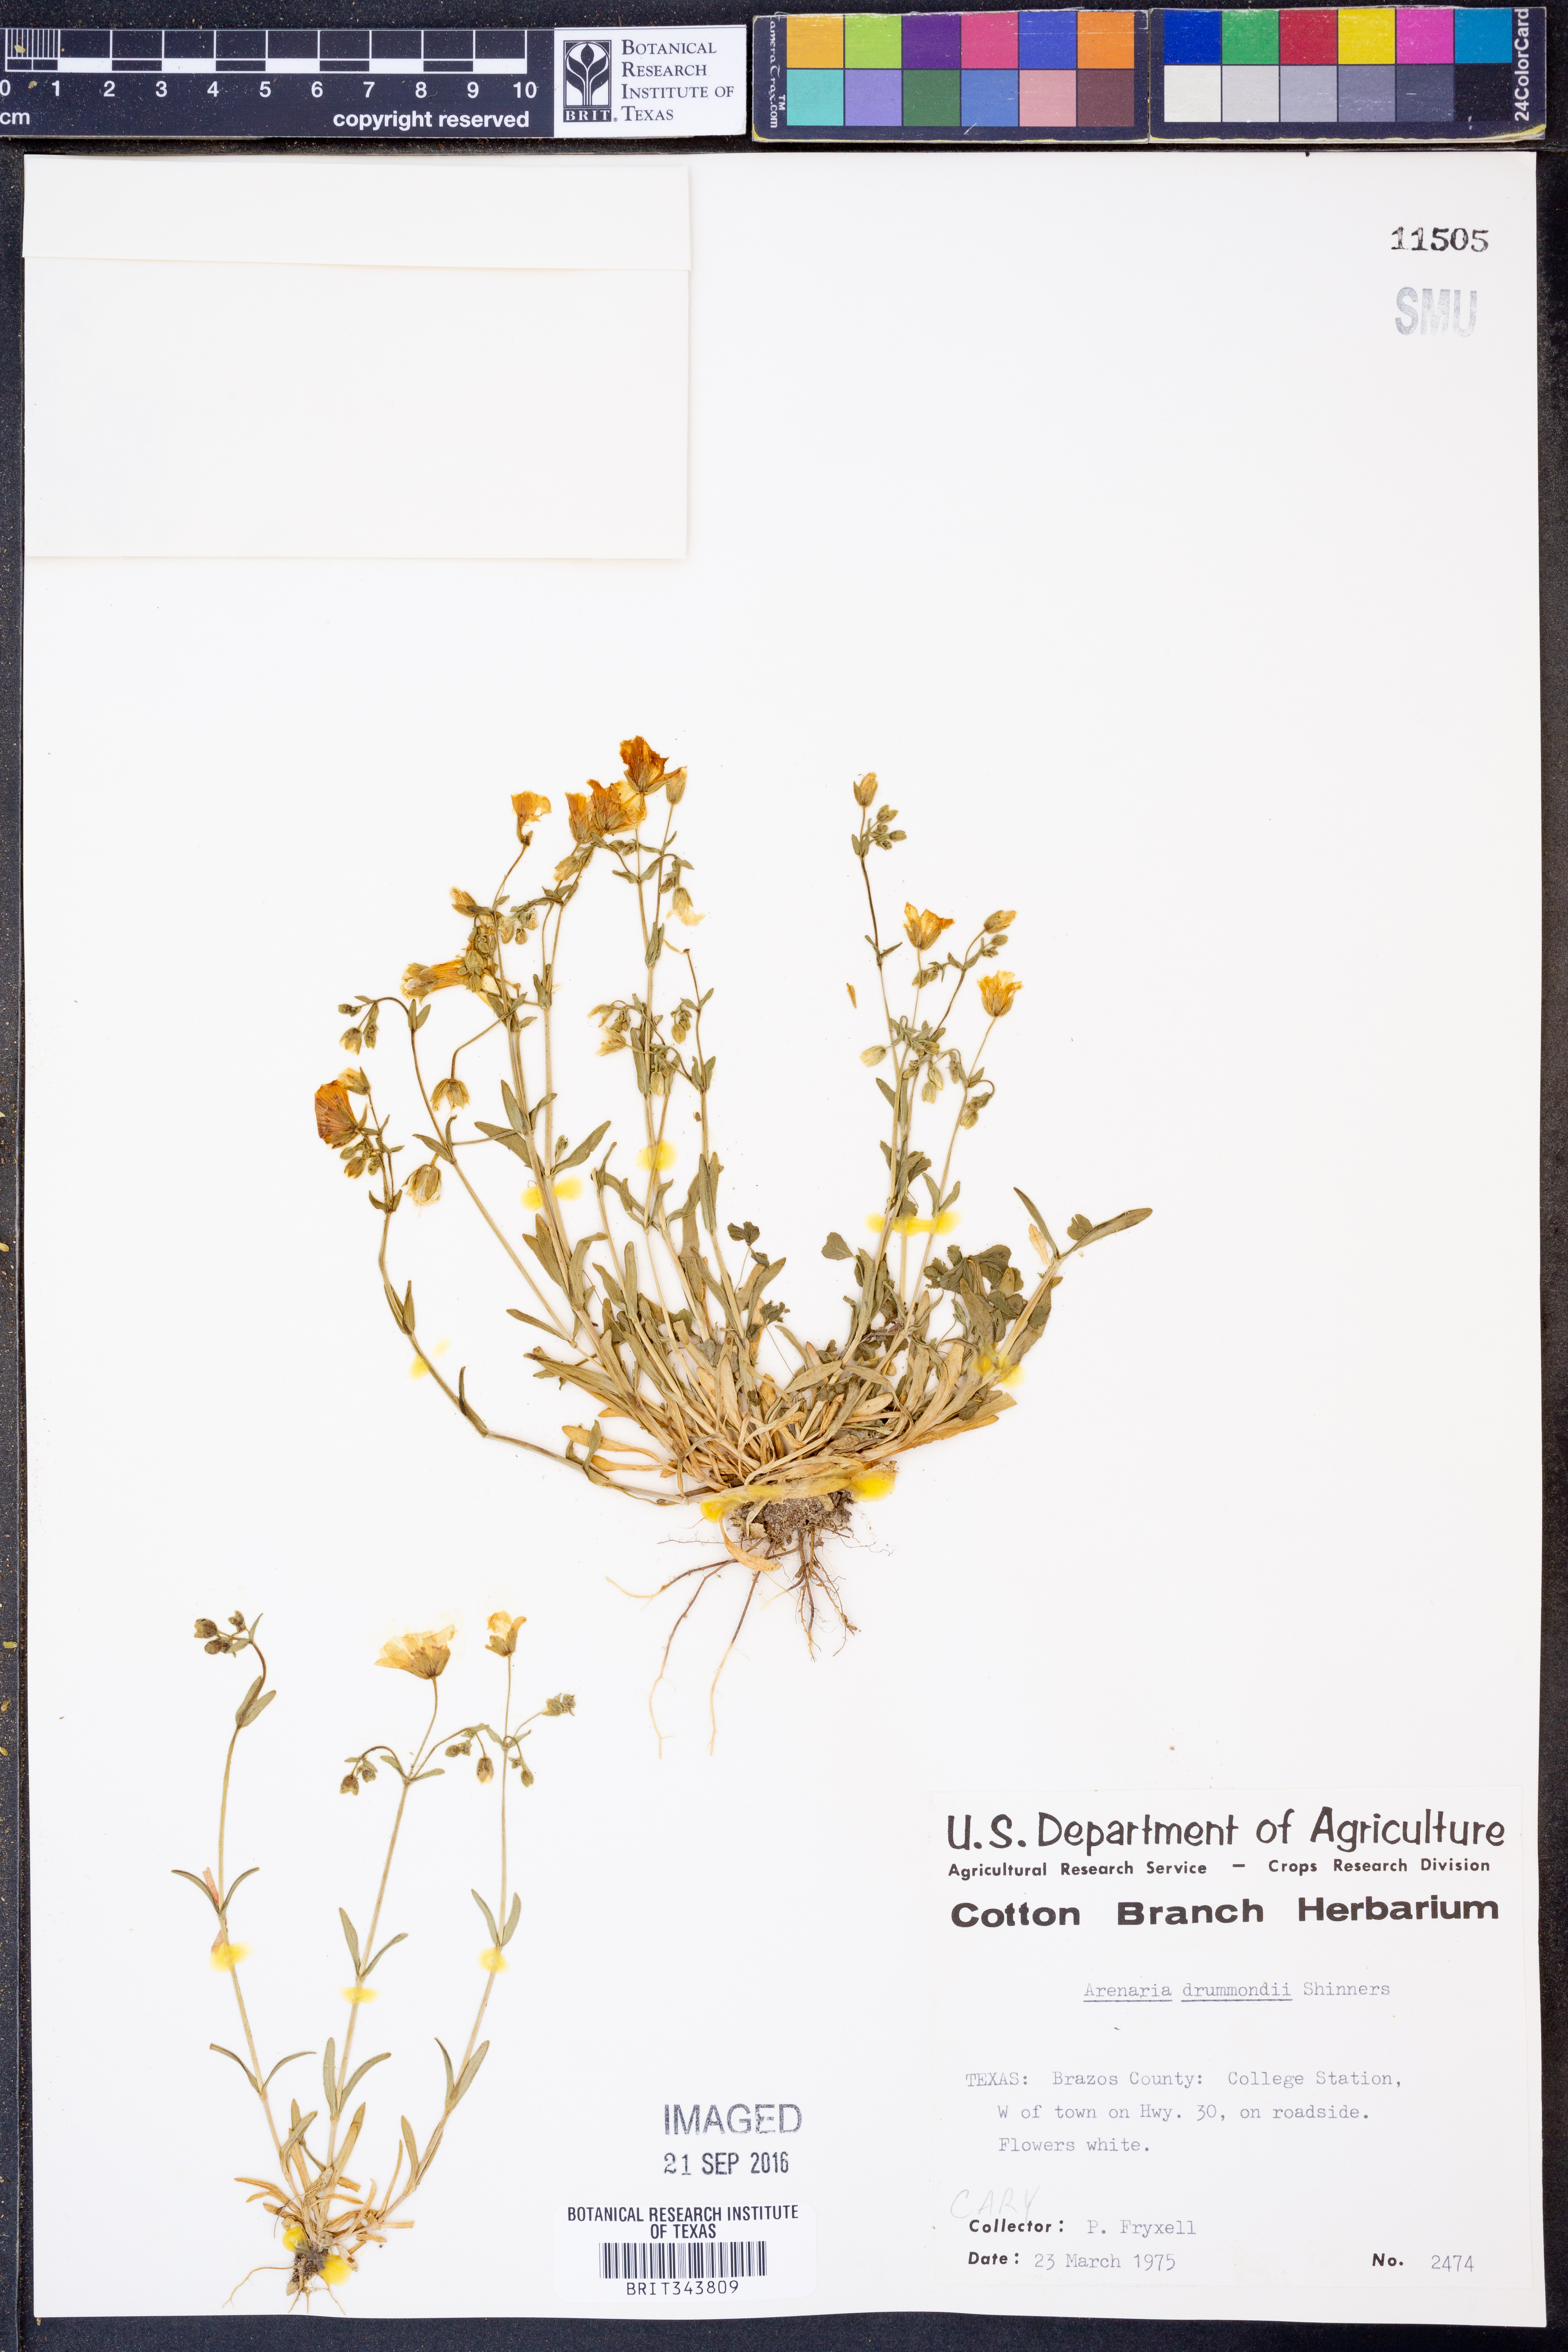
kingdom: Plantae
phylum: Tracheophyta
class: Magnoliopsida
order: Caryophyllales
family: Caryophyllaceae
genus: Geocarpon
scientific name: Geocarpon nuttallii
